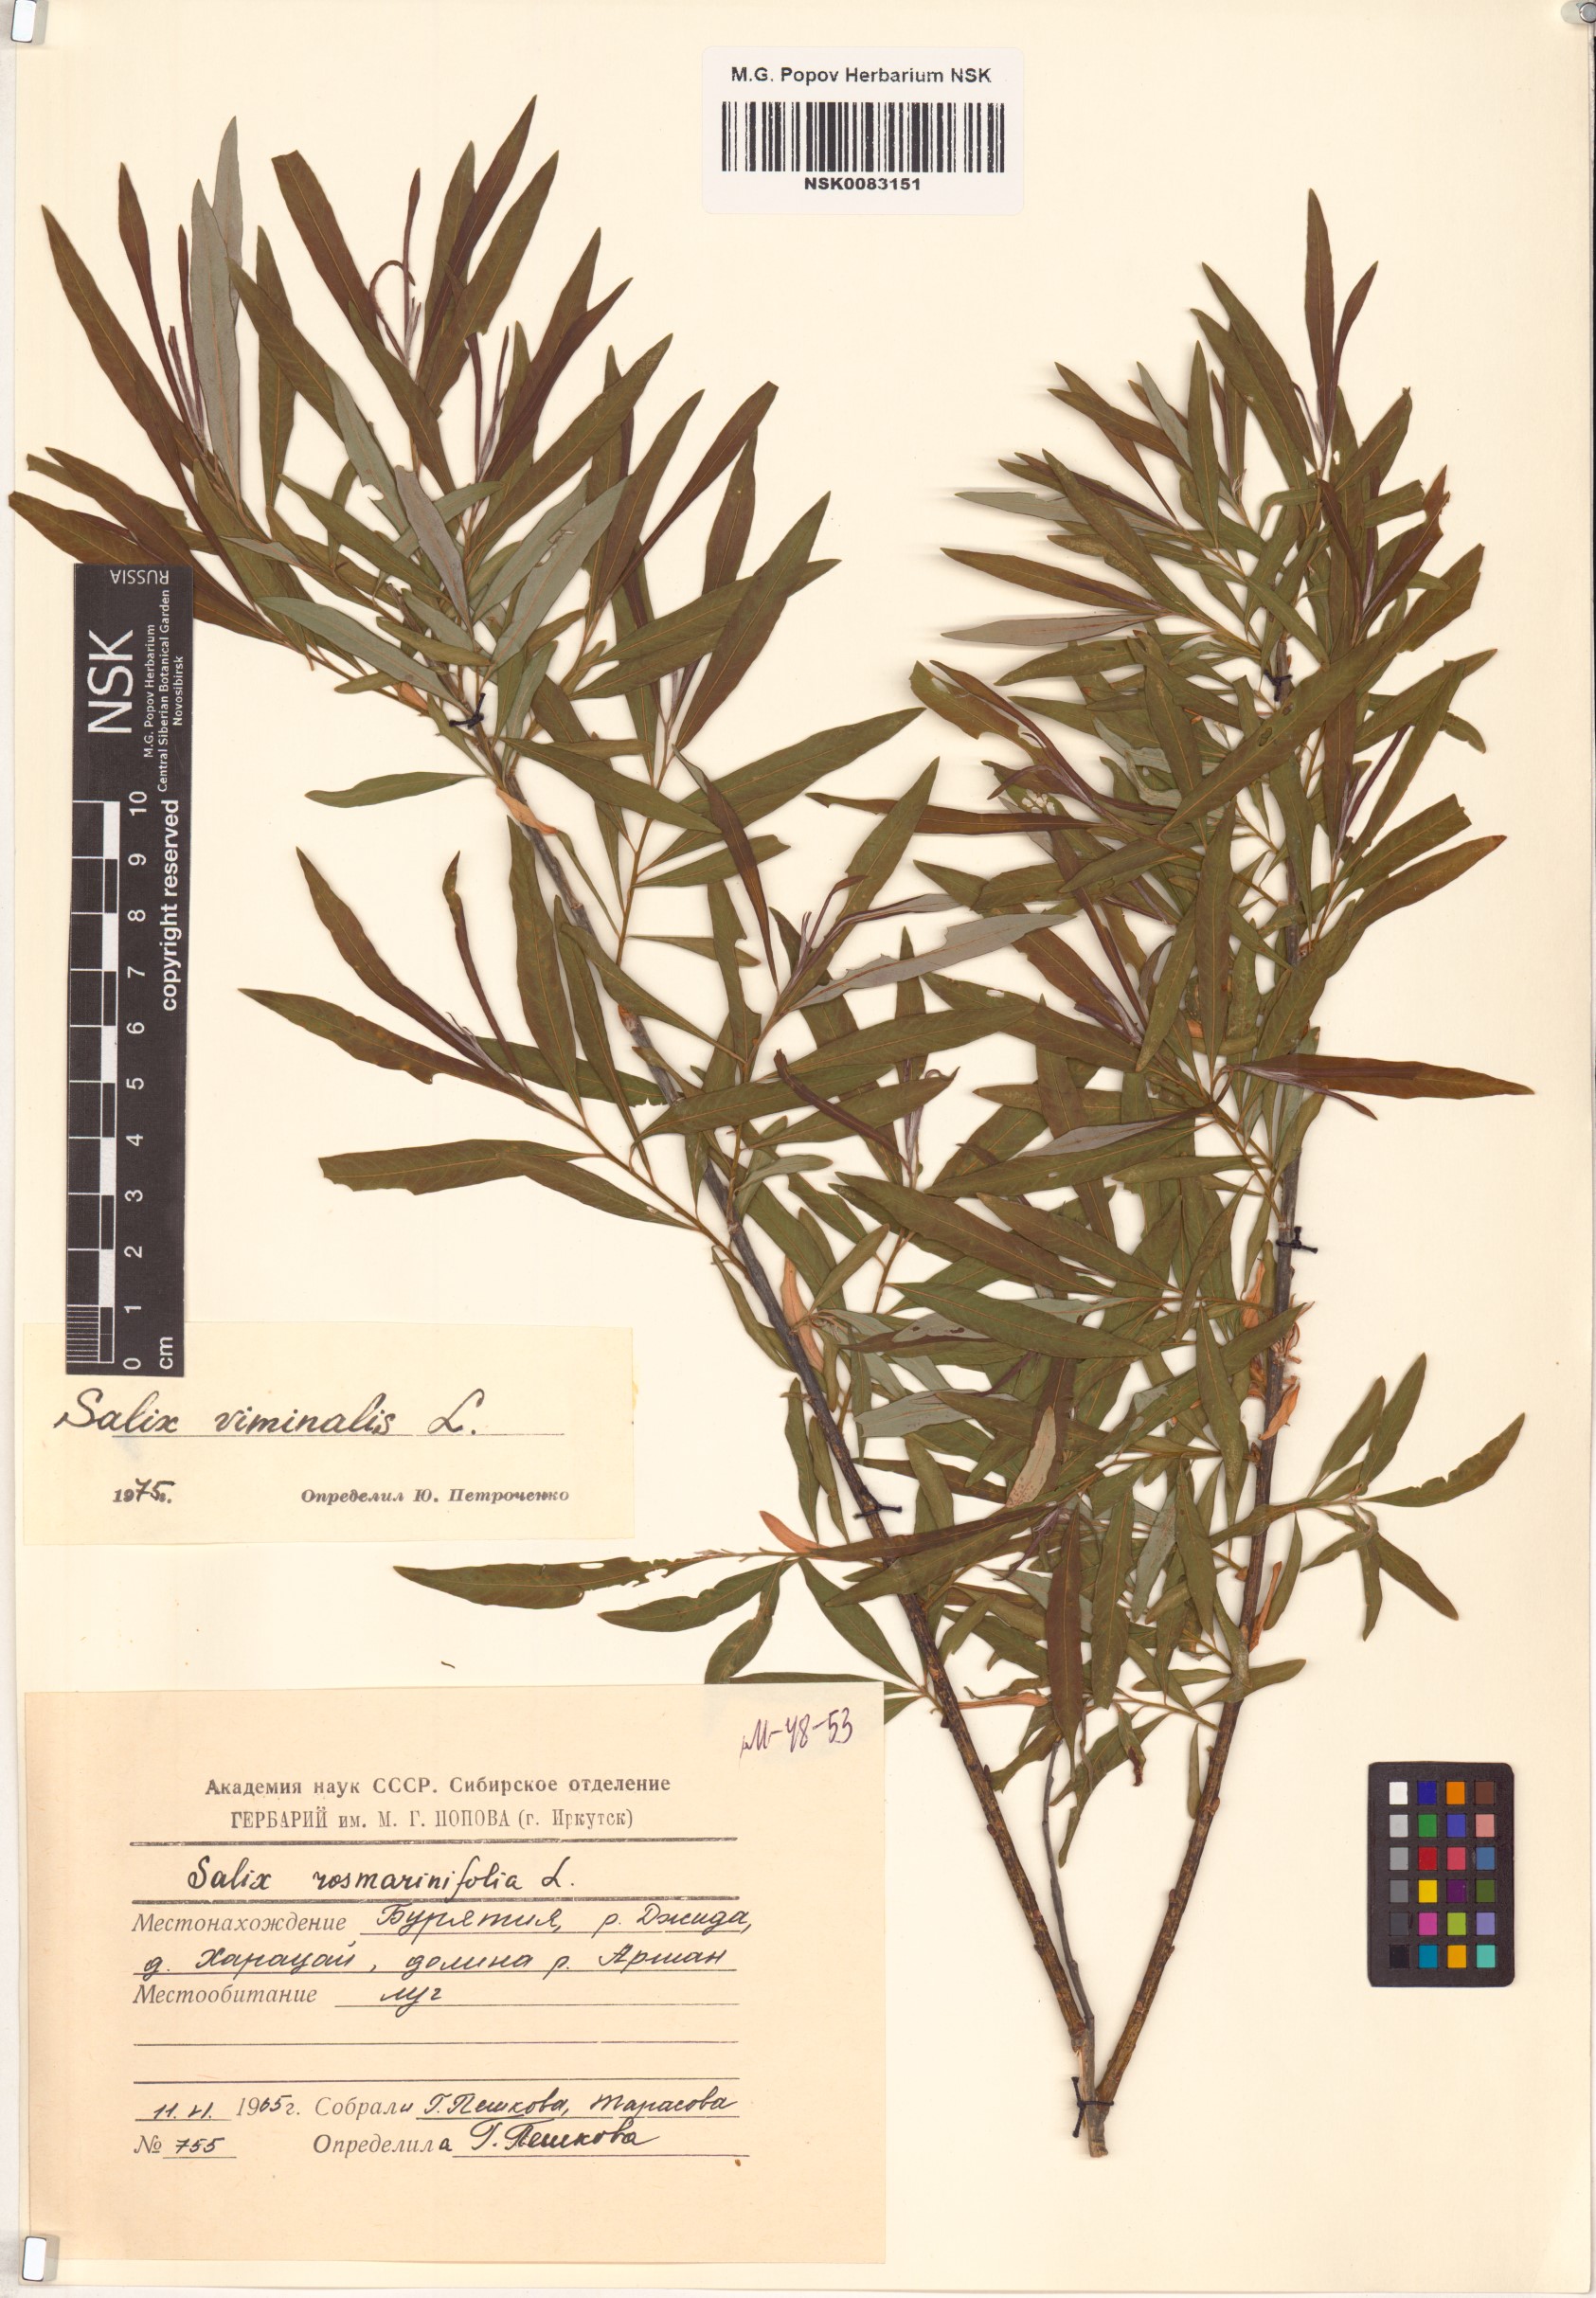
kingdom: Plantae
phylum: Tracheophyta
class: Magnoliopsida
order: Malpighiales
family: Salicaceae
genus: Salix
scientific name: Salix viminalis
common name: Osier
